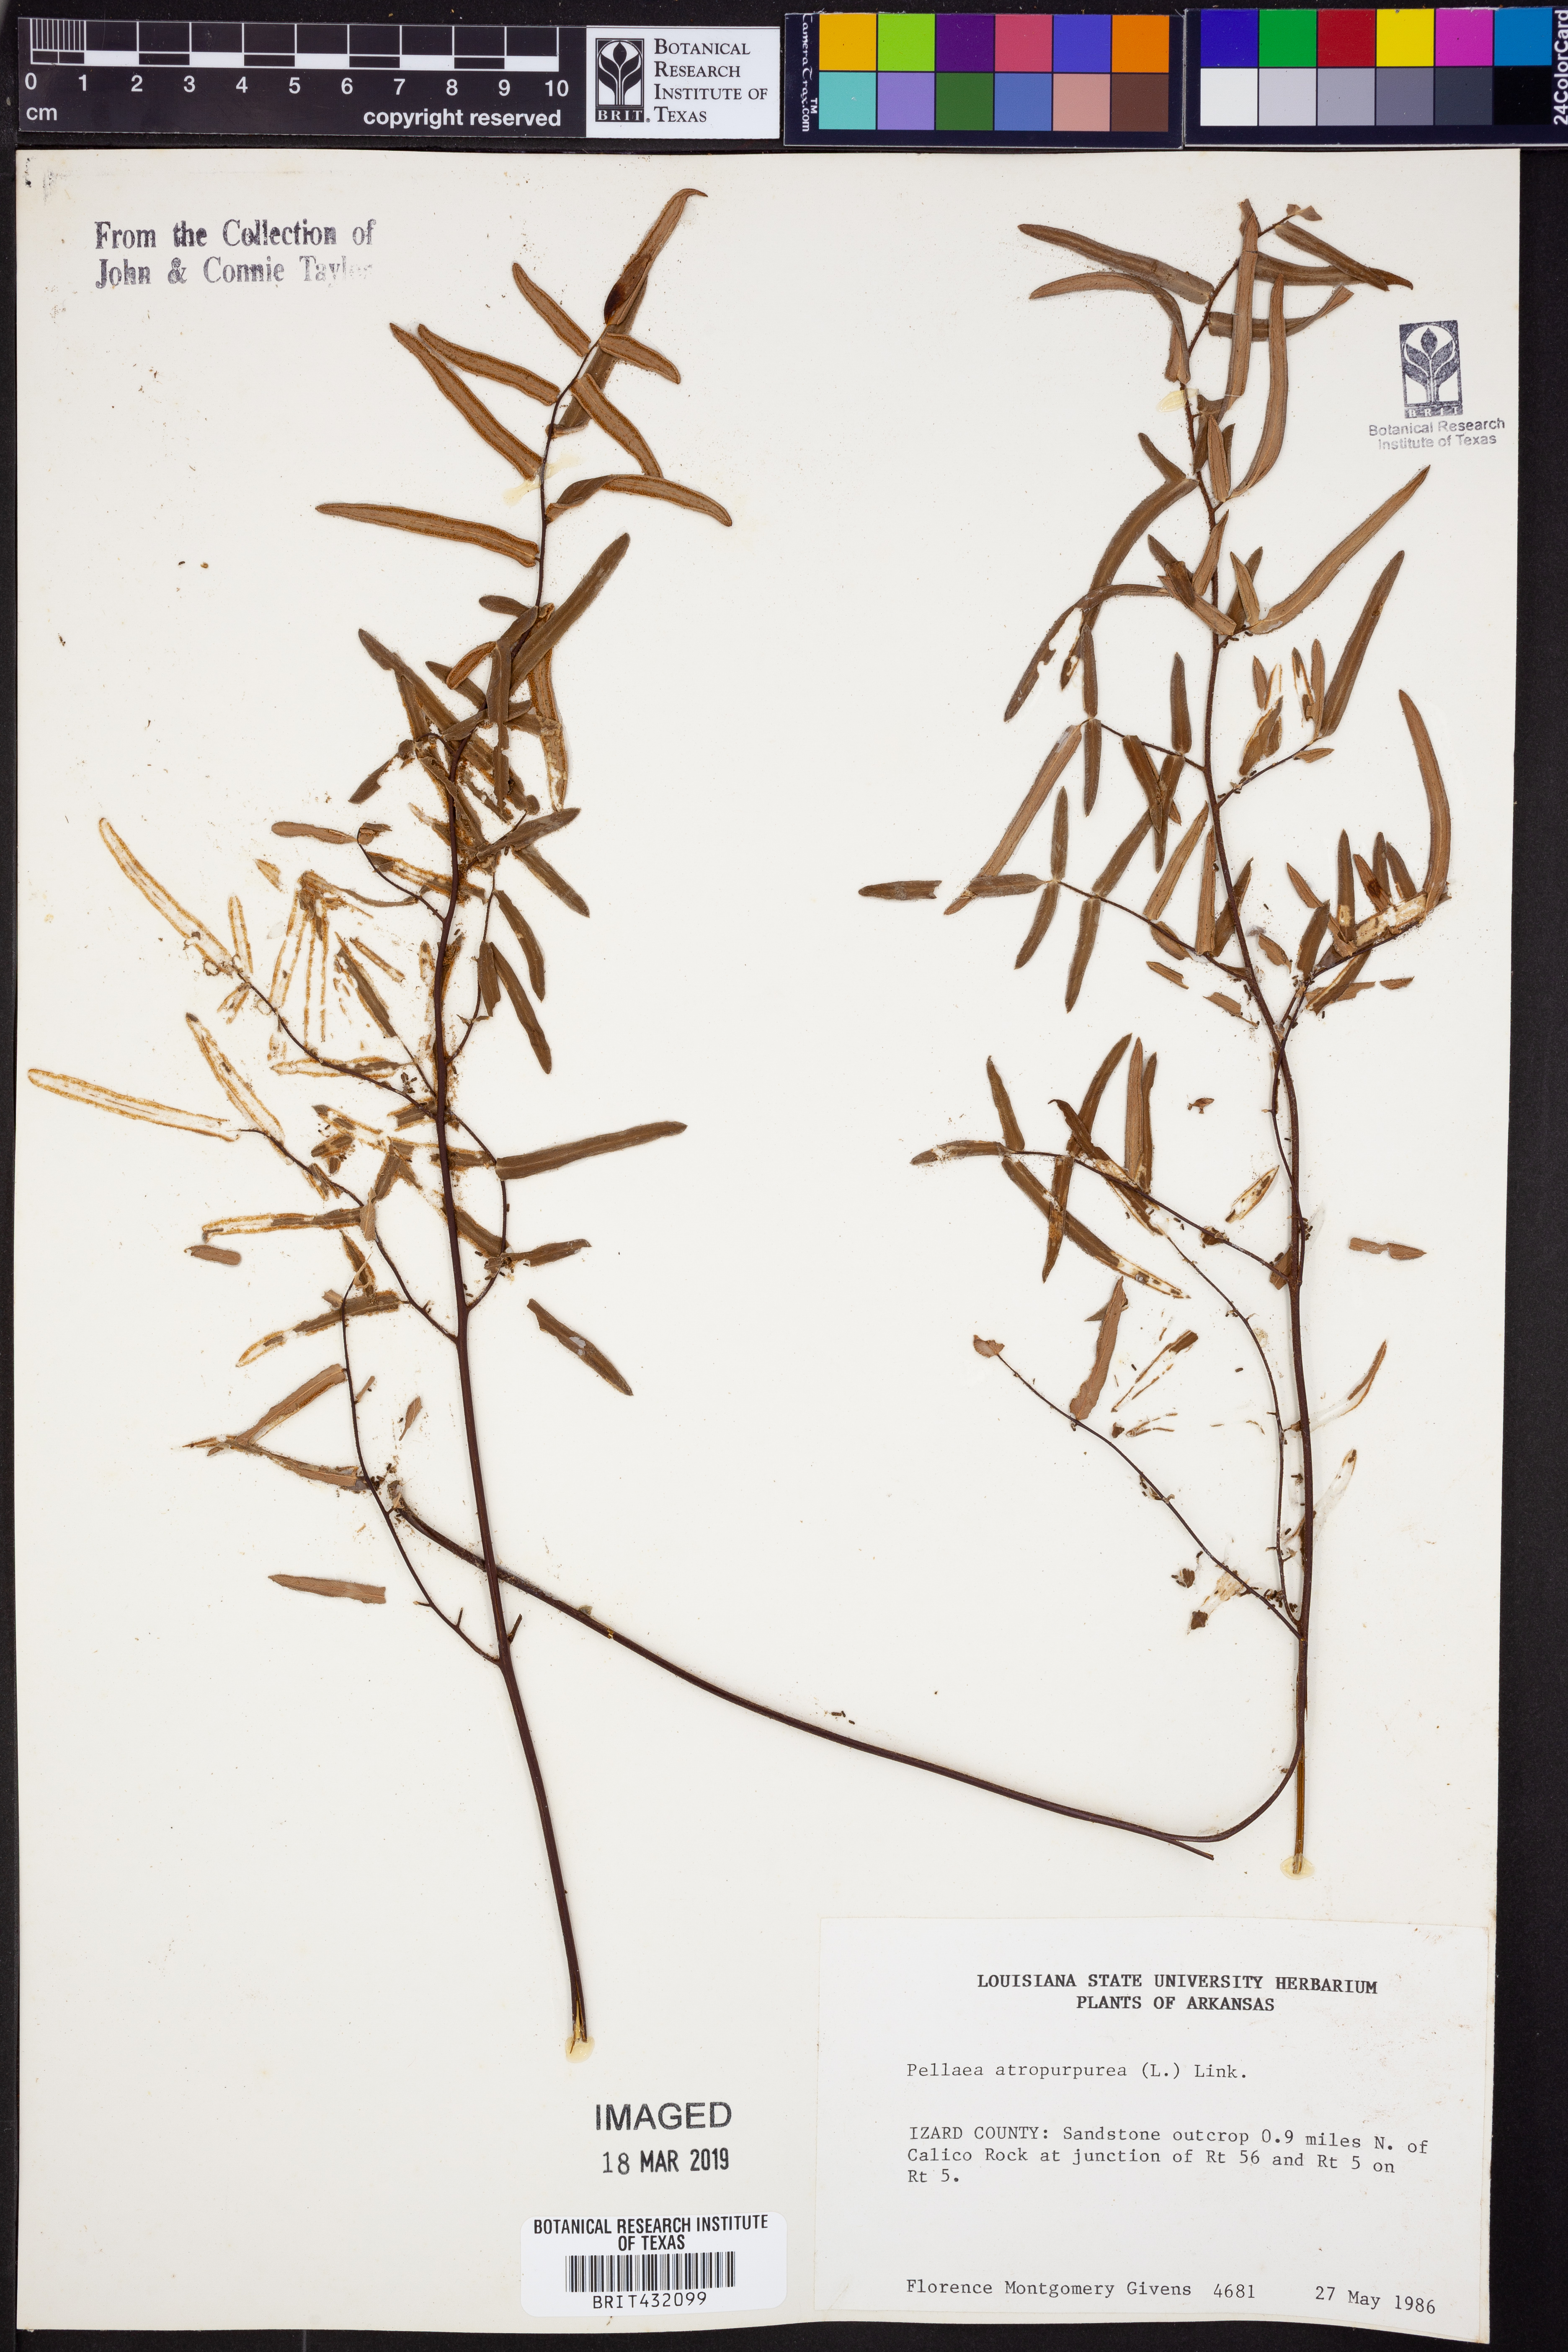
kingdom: Plantae
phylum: Tracheophyta
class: Polypodiopsida
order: Polypodiales
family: Pteridaceae
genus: Pellaea
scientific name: Pellaea atropurpurea
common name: Hairy cliffbrake
